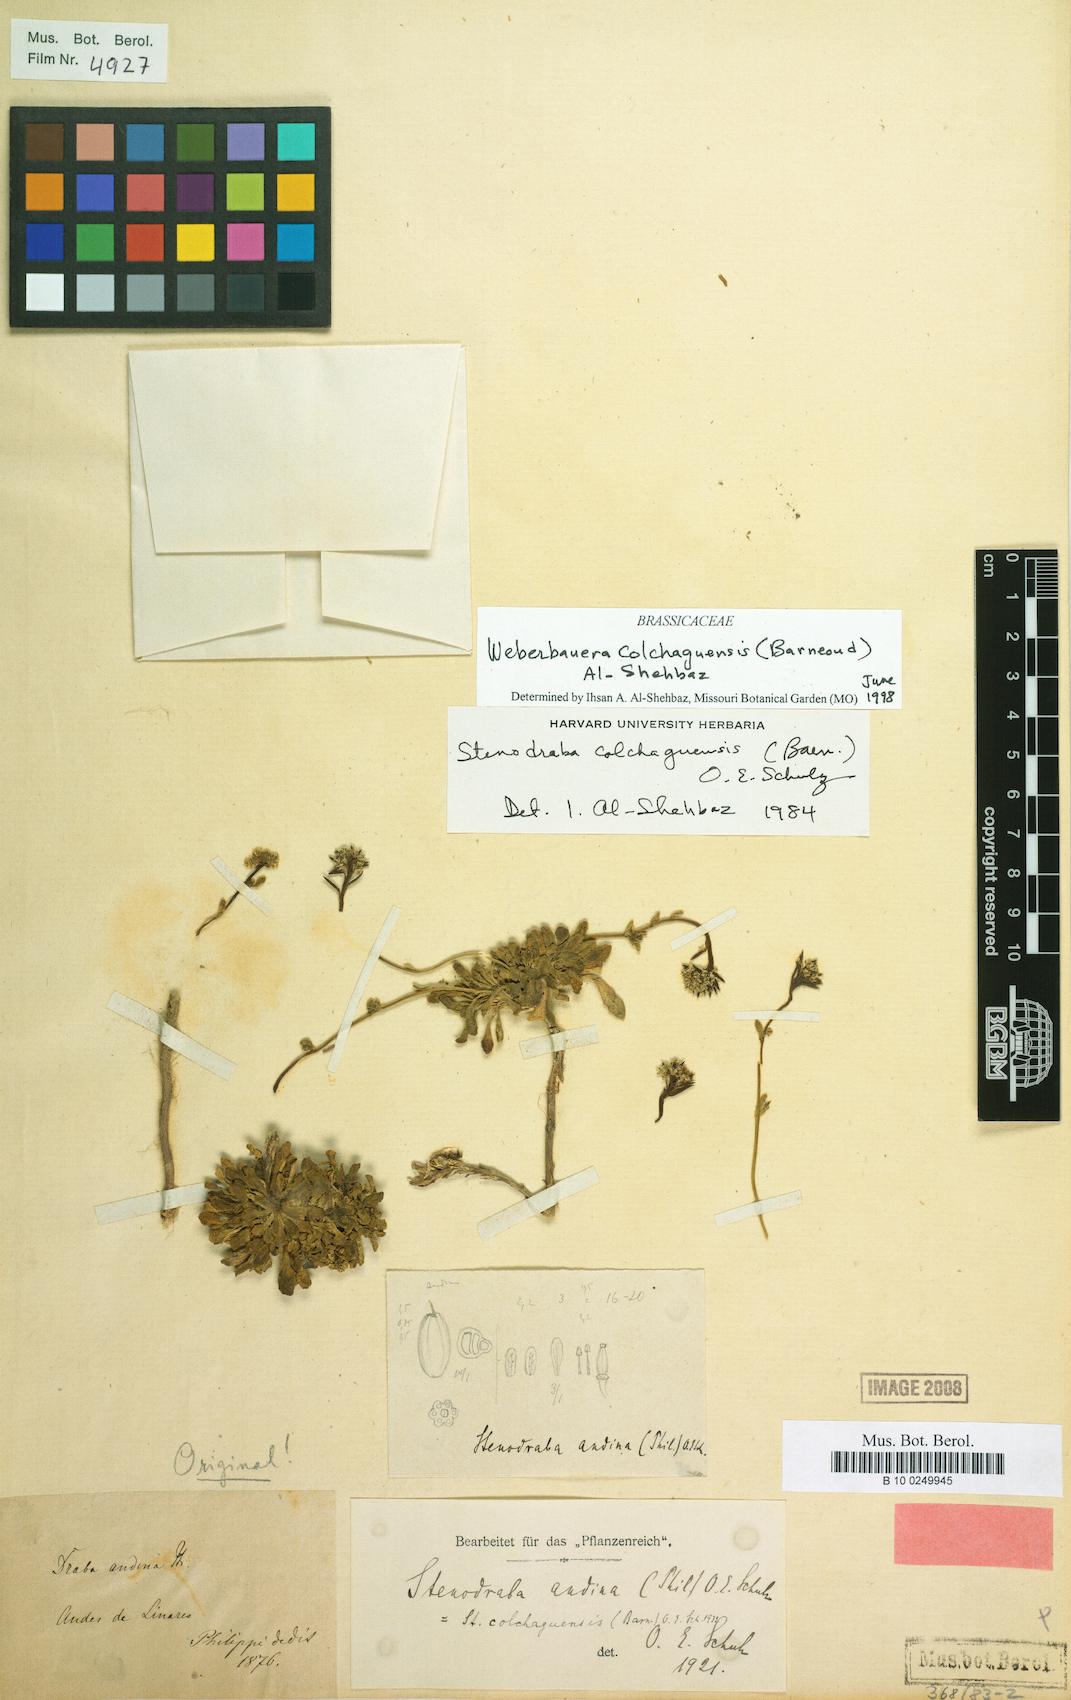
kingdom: Plantae
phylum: Tracheophyta
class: Magnoliopsida
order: Brassicales
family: Brassicaceae
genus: Stenodraba
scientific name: Stenodraba colchaguensis
